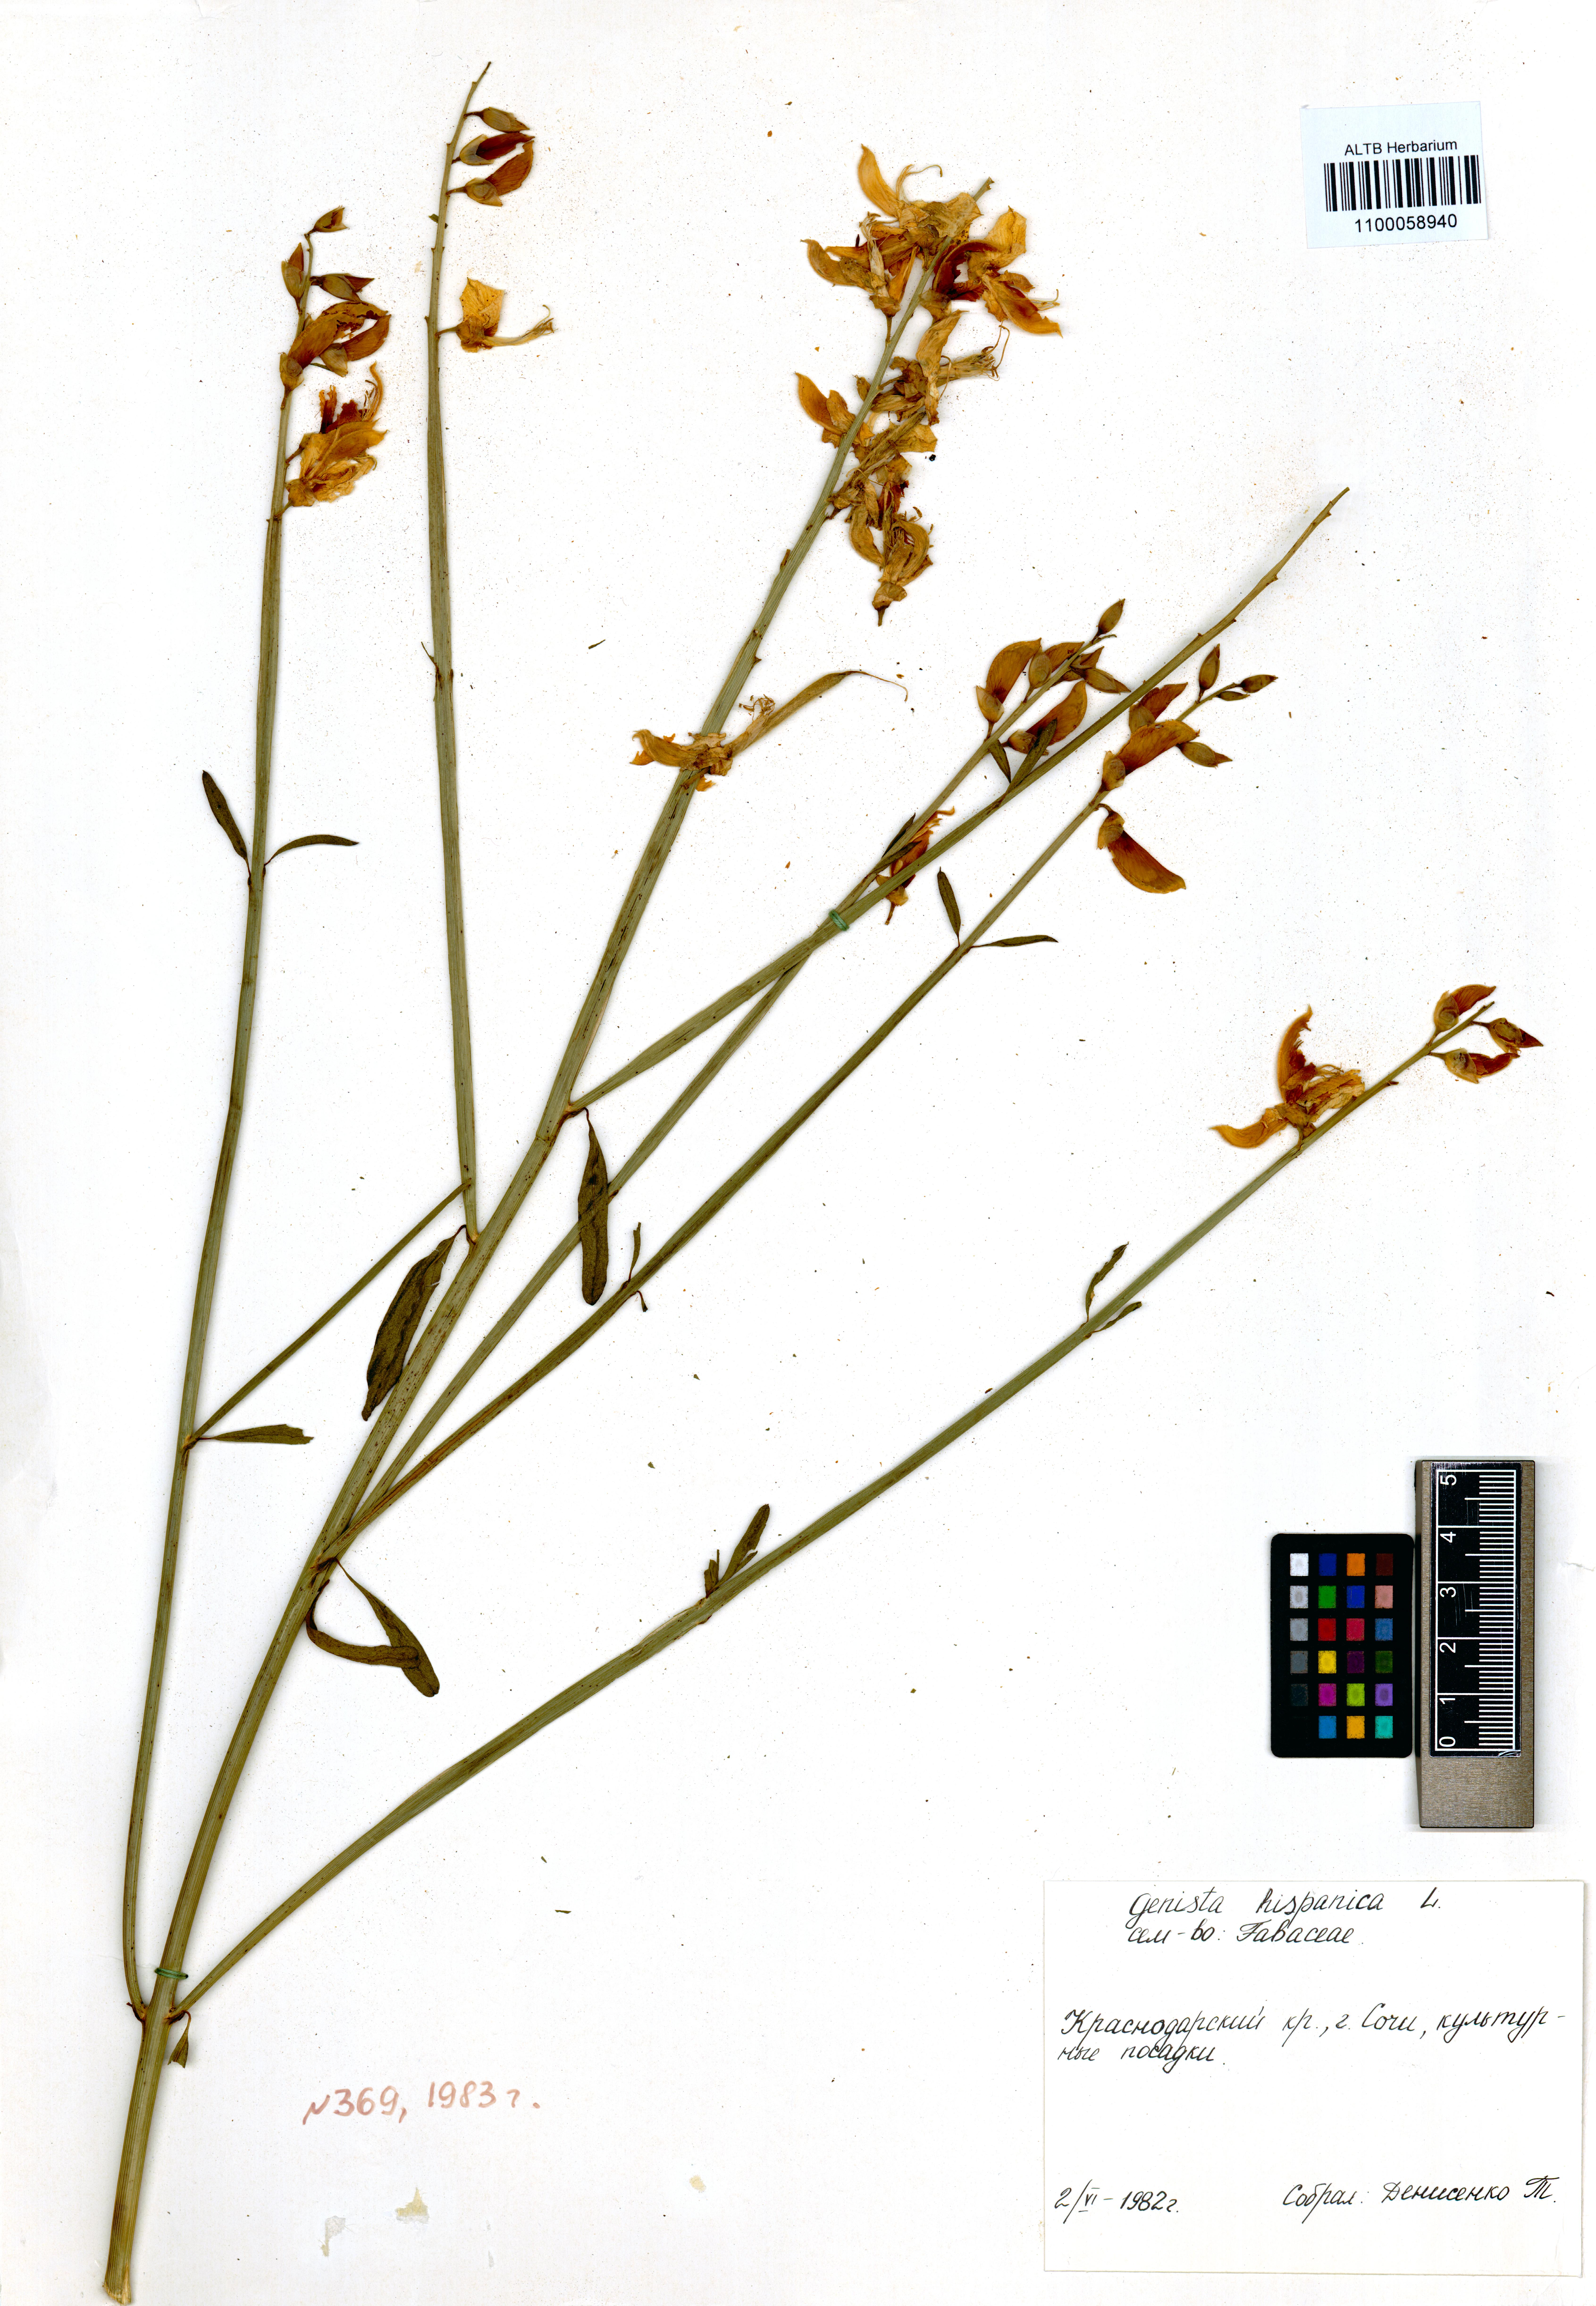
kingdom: Plantae
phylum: Tracheophyta
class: Magnoliopsida
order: Fabales
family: Fabaceae
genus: Genista
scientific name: Genista hispanica
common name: Spanish gorse
